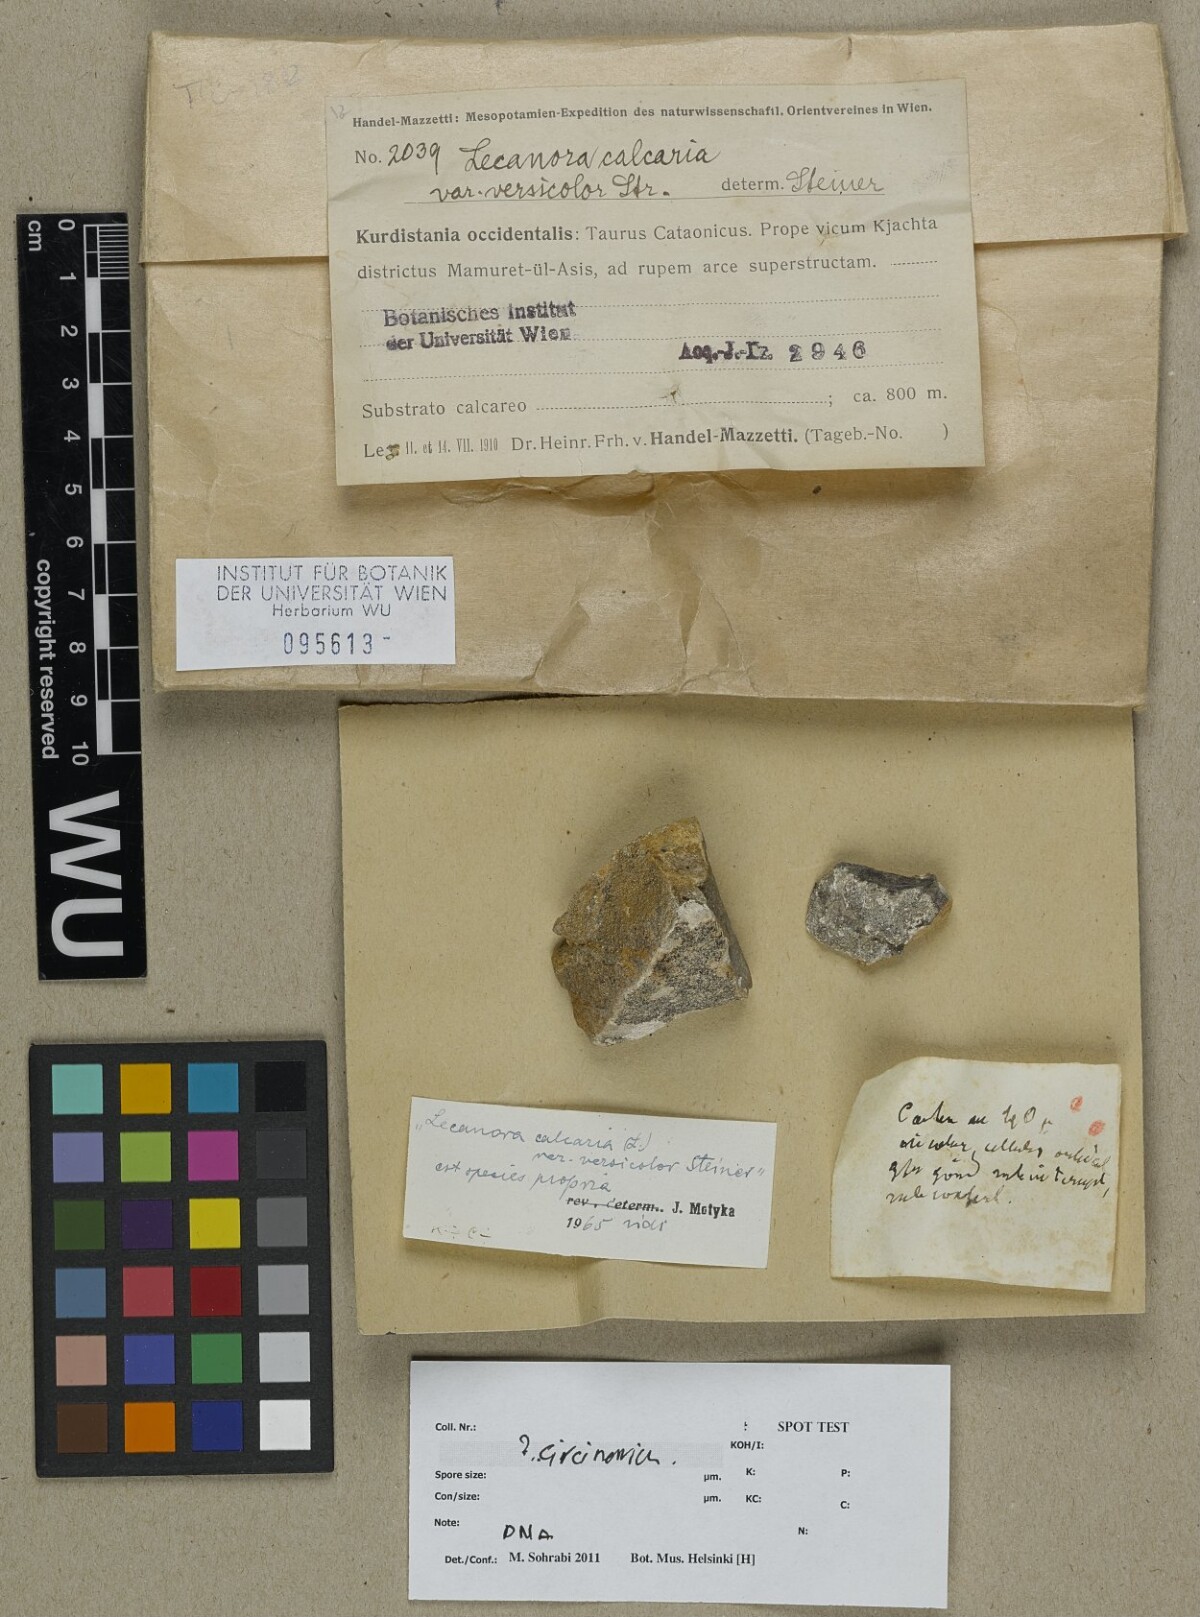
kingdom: Fungi
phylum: Ascomycota
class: Lecanoromycetes
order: Pertusariales
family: Megasporaceae
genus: Circinaria
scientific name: Circinaria
